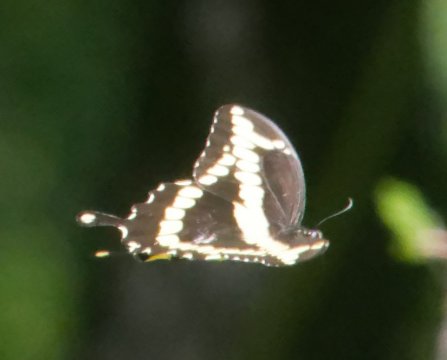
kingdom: Animalia
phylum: Arthropoda
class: Insecta
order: Lepidoptera
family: Papilionidae
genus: Papilio
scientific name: Papilio cresphontes
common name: Eastern Giant Swallowtail
